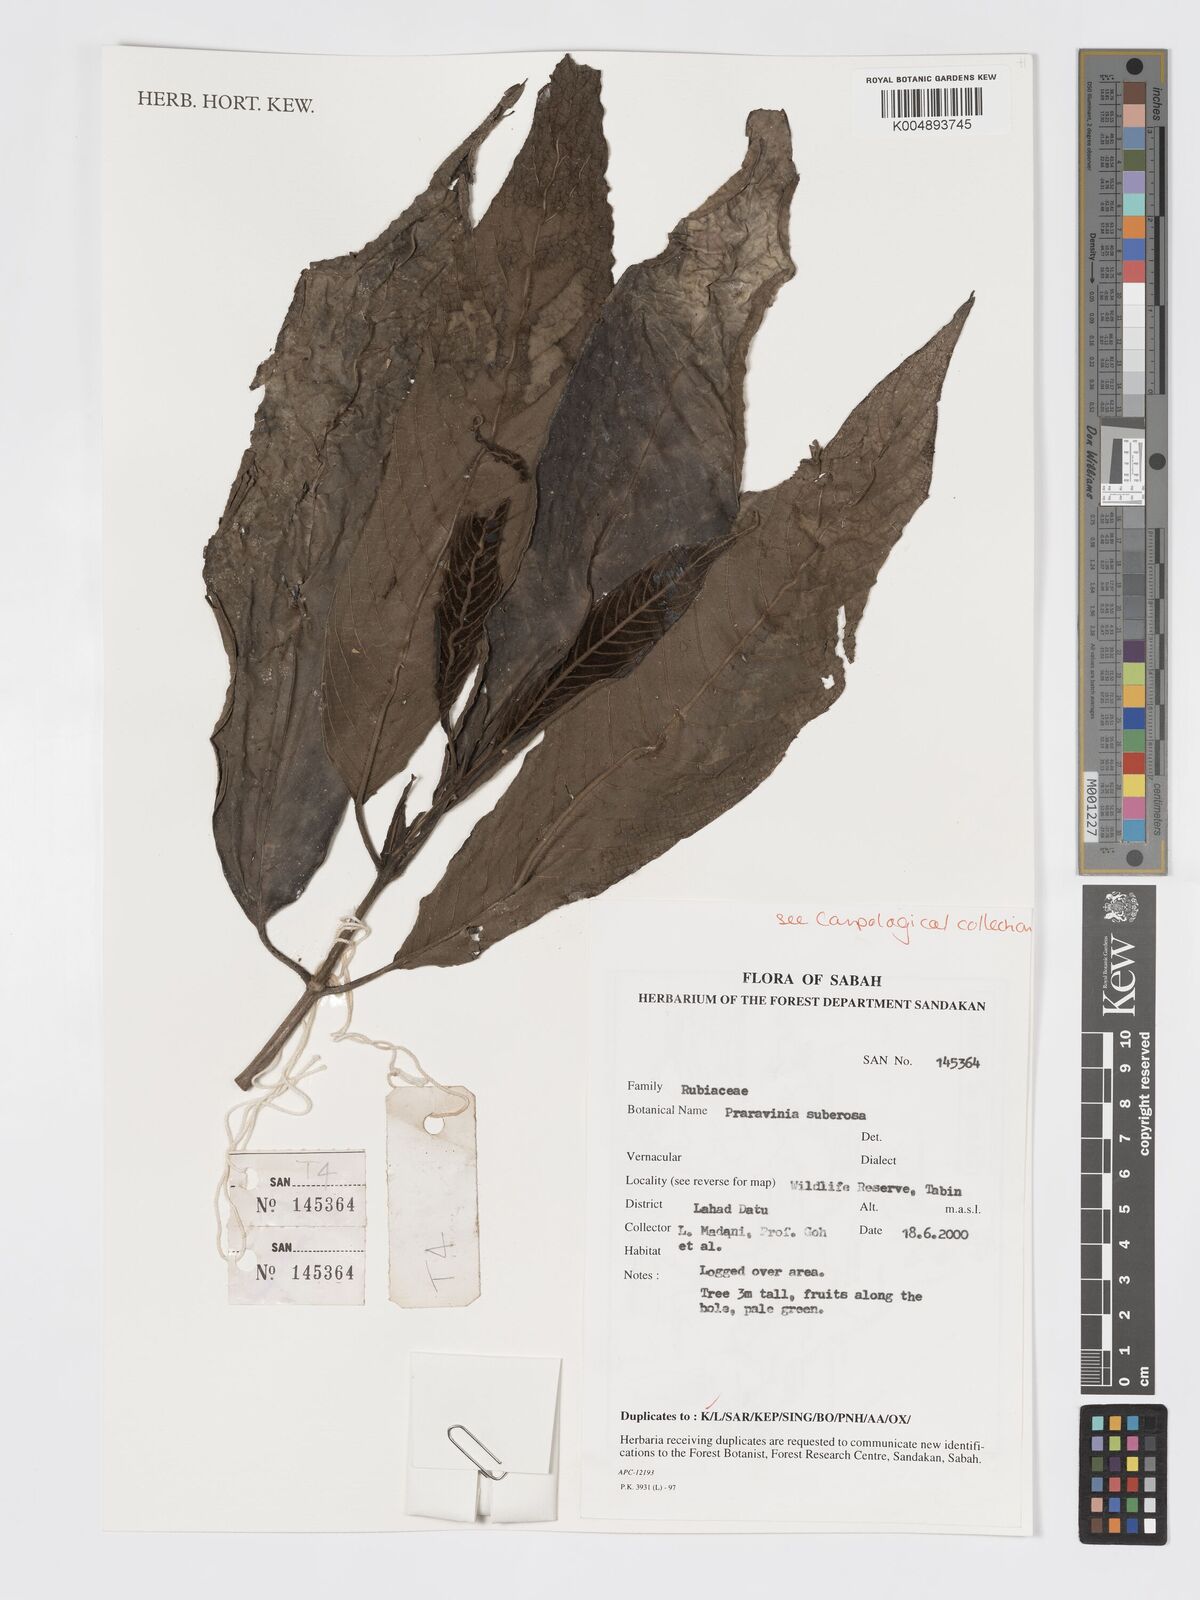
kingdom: Plantae
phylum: Tracheophyta
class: Magnoliopsida
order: Gentianales
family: Rubiaceae
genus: Praravinia
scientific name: Praravinia suberosa
